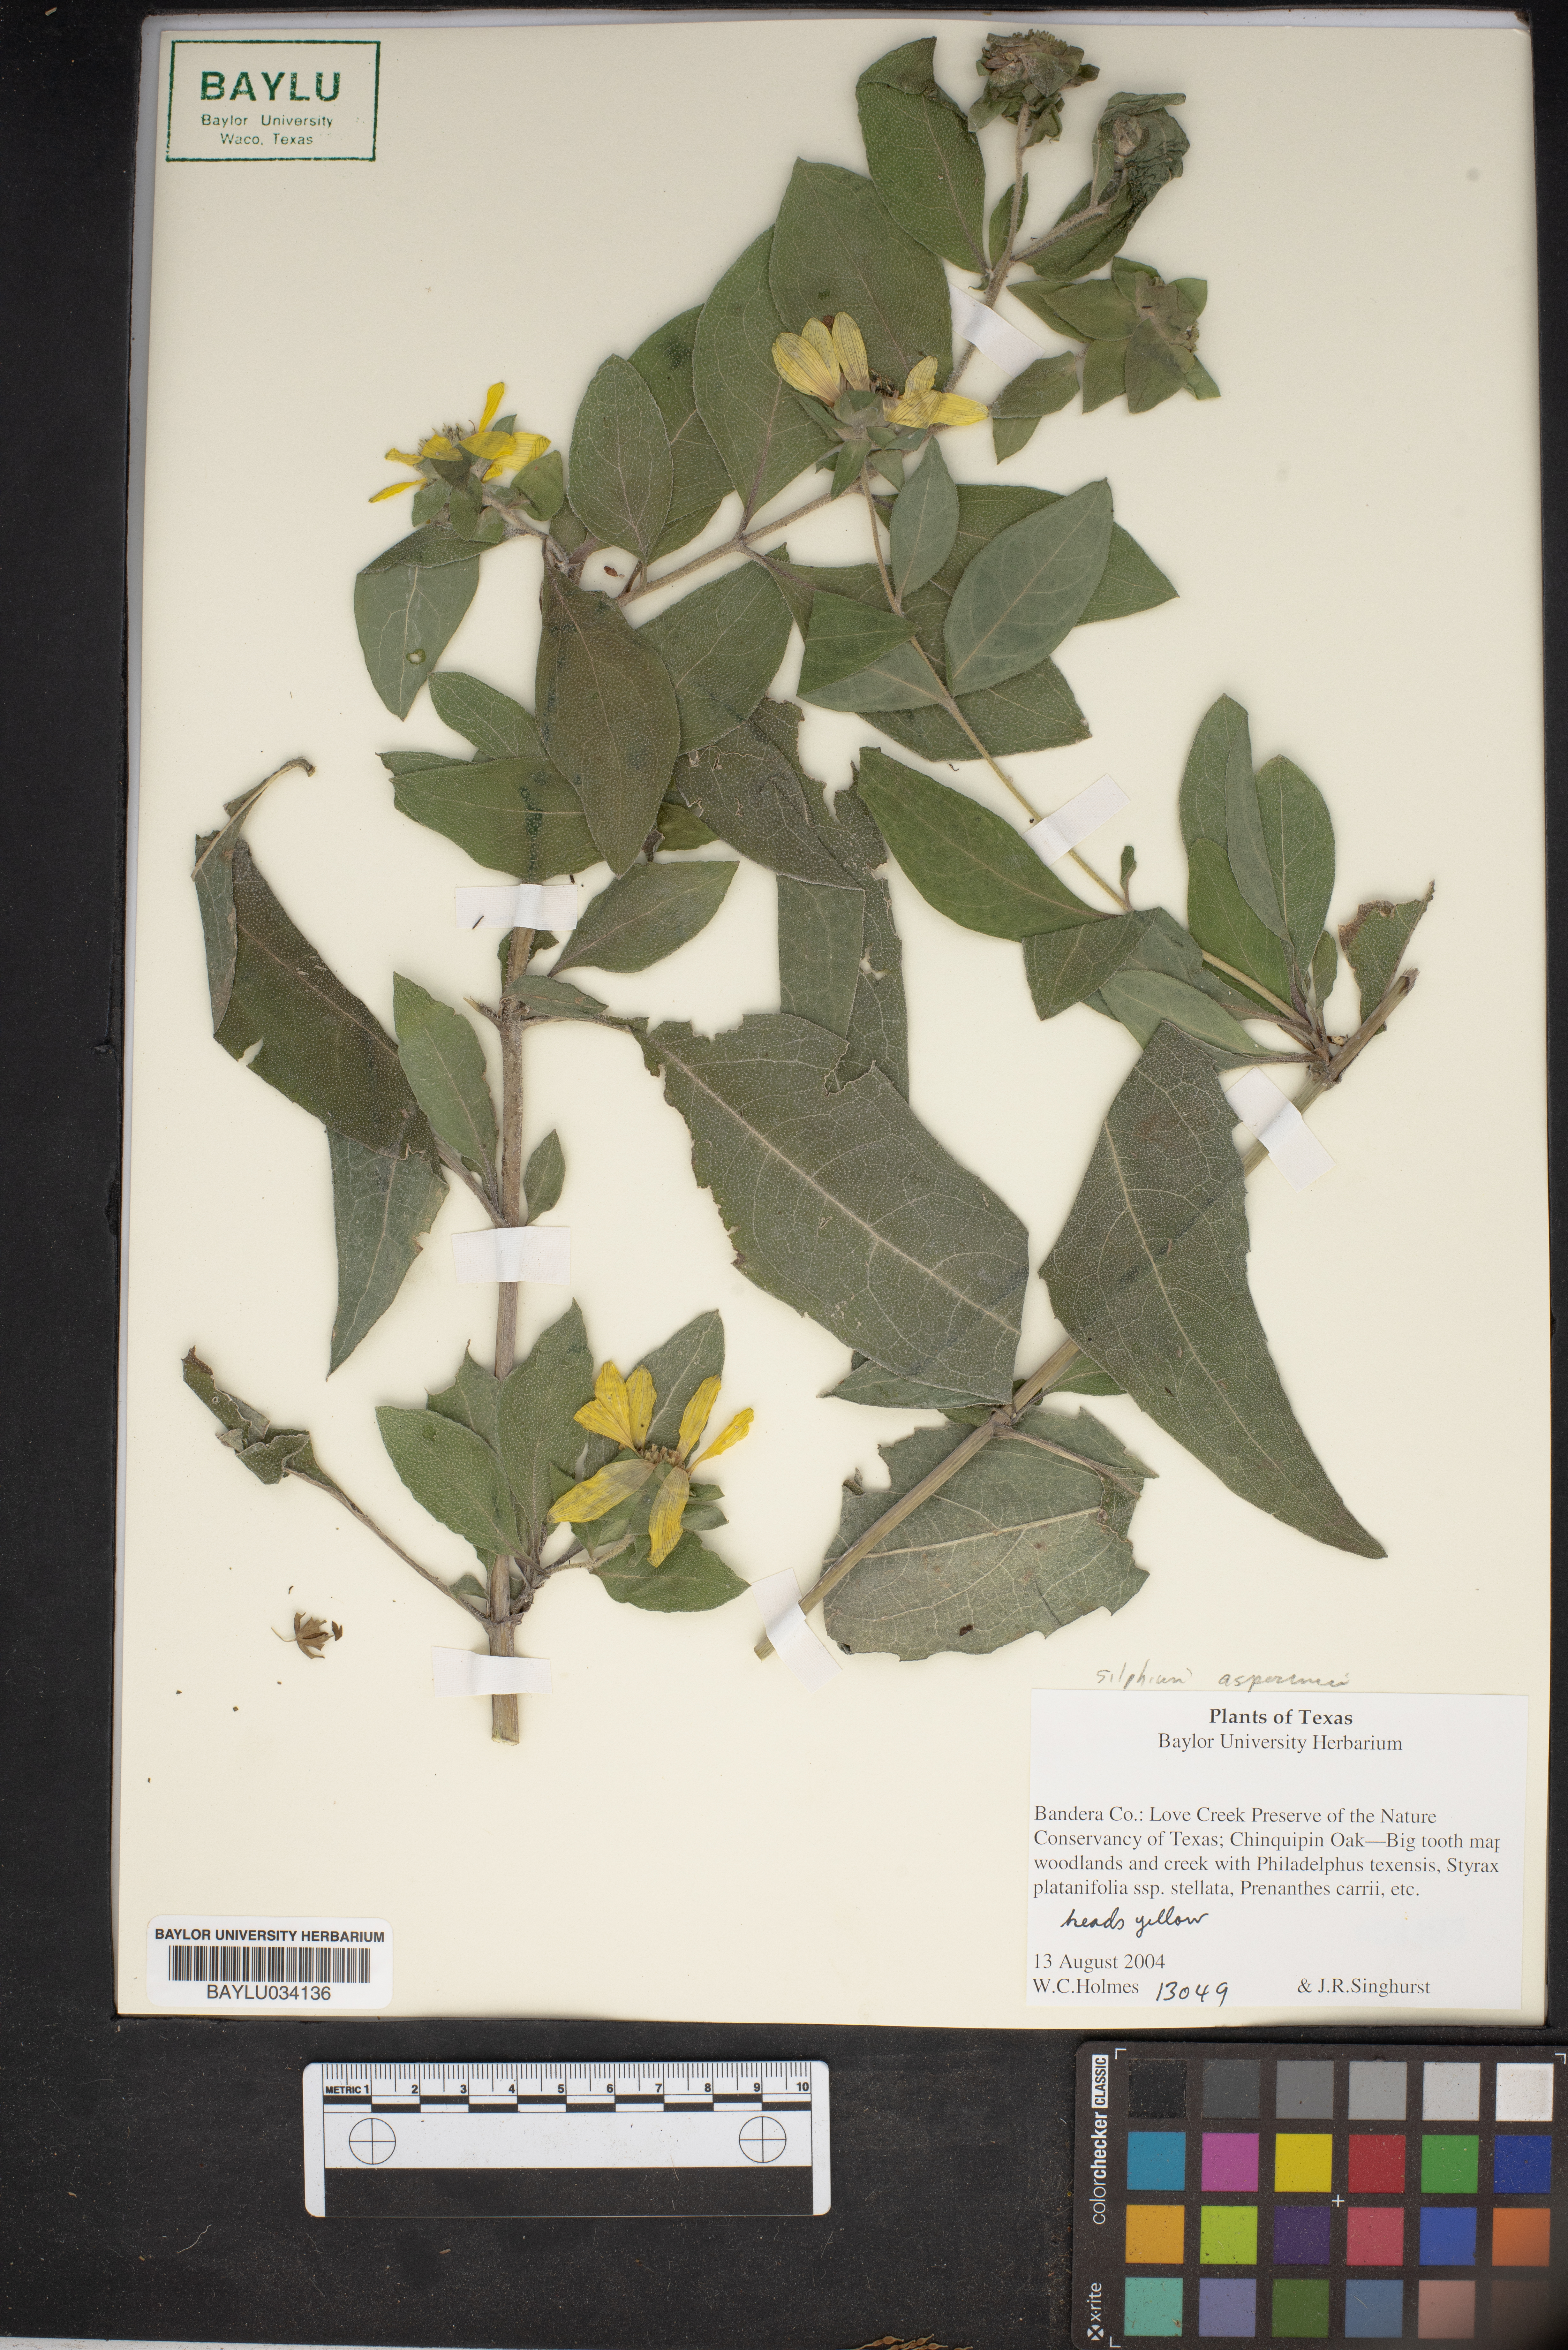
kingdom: Plantae
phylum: Tracheophyta
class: Magnoliopsida
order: Asterales
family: Asteraceae
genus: Silphium
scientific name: Silphium asperrimum
